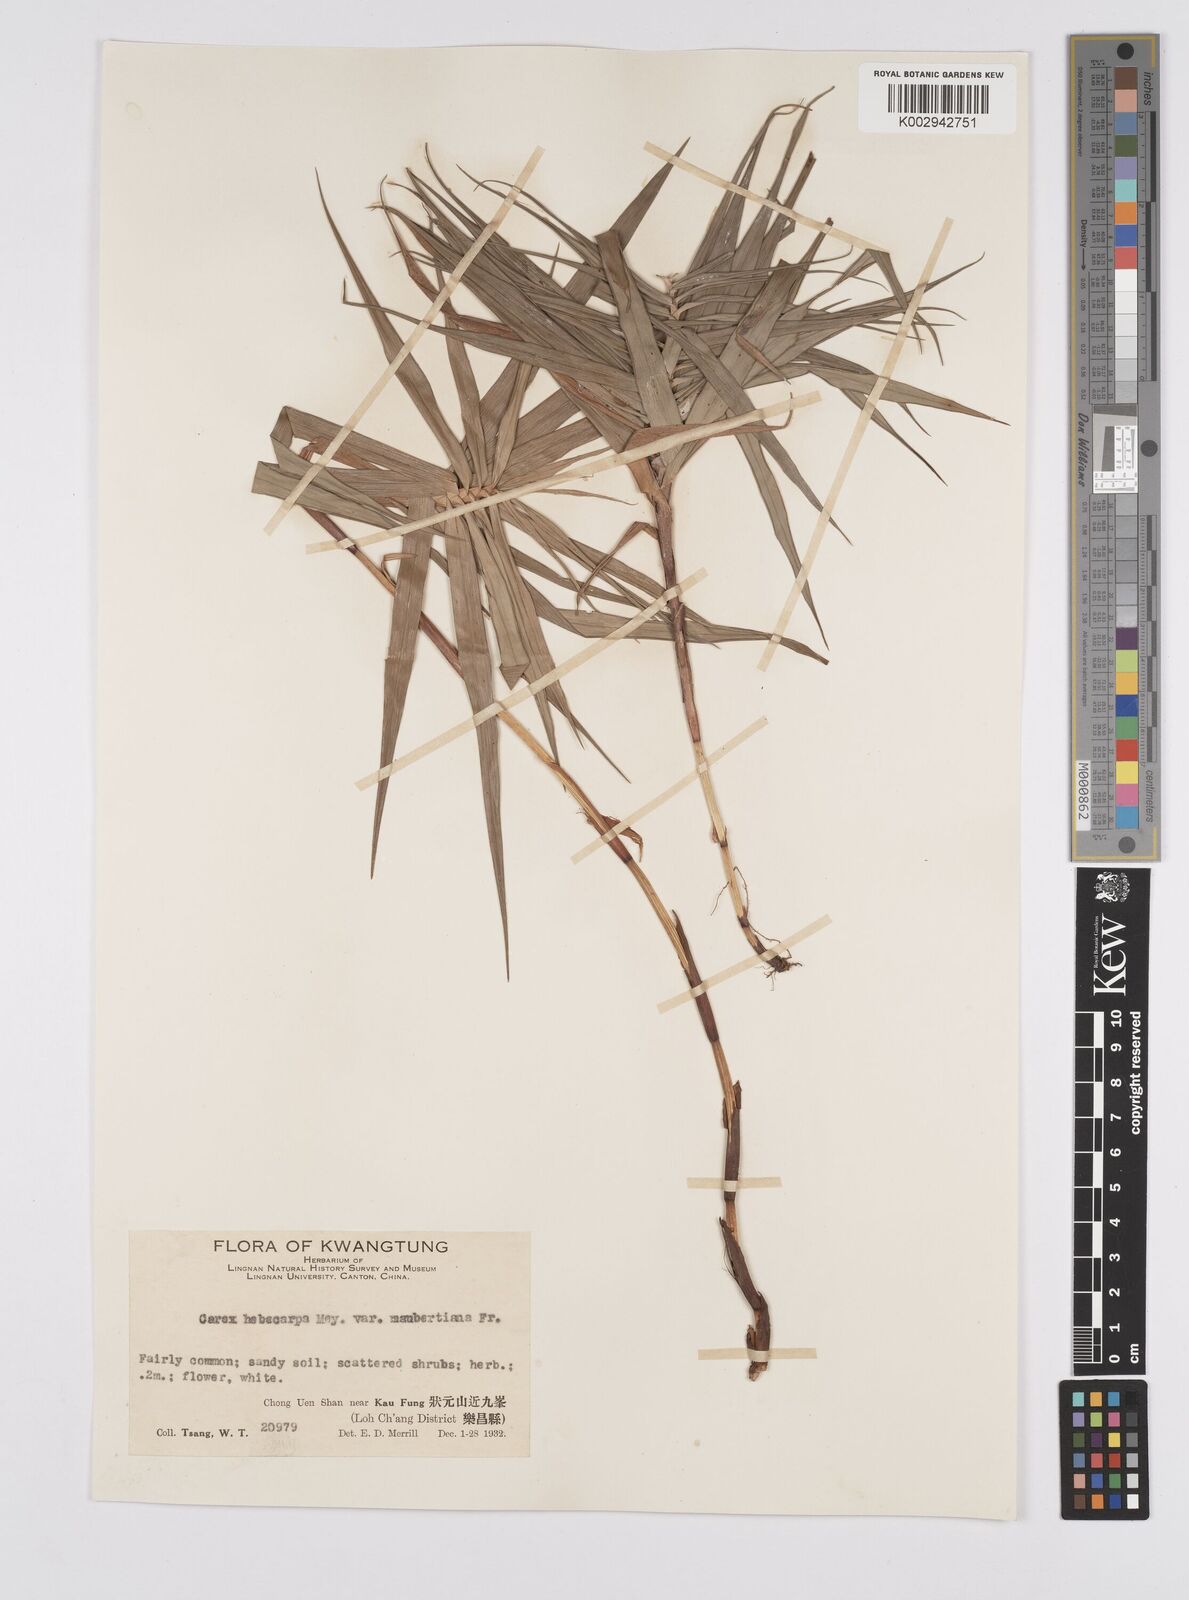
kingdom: Plantae
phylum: Tracheophyta
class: Liliopsida
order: Poales
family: Cyperaceae
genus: Carex
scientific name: Carex maubertiana
